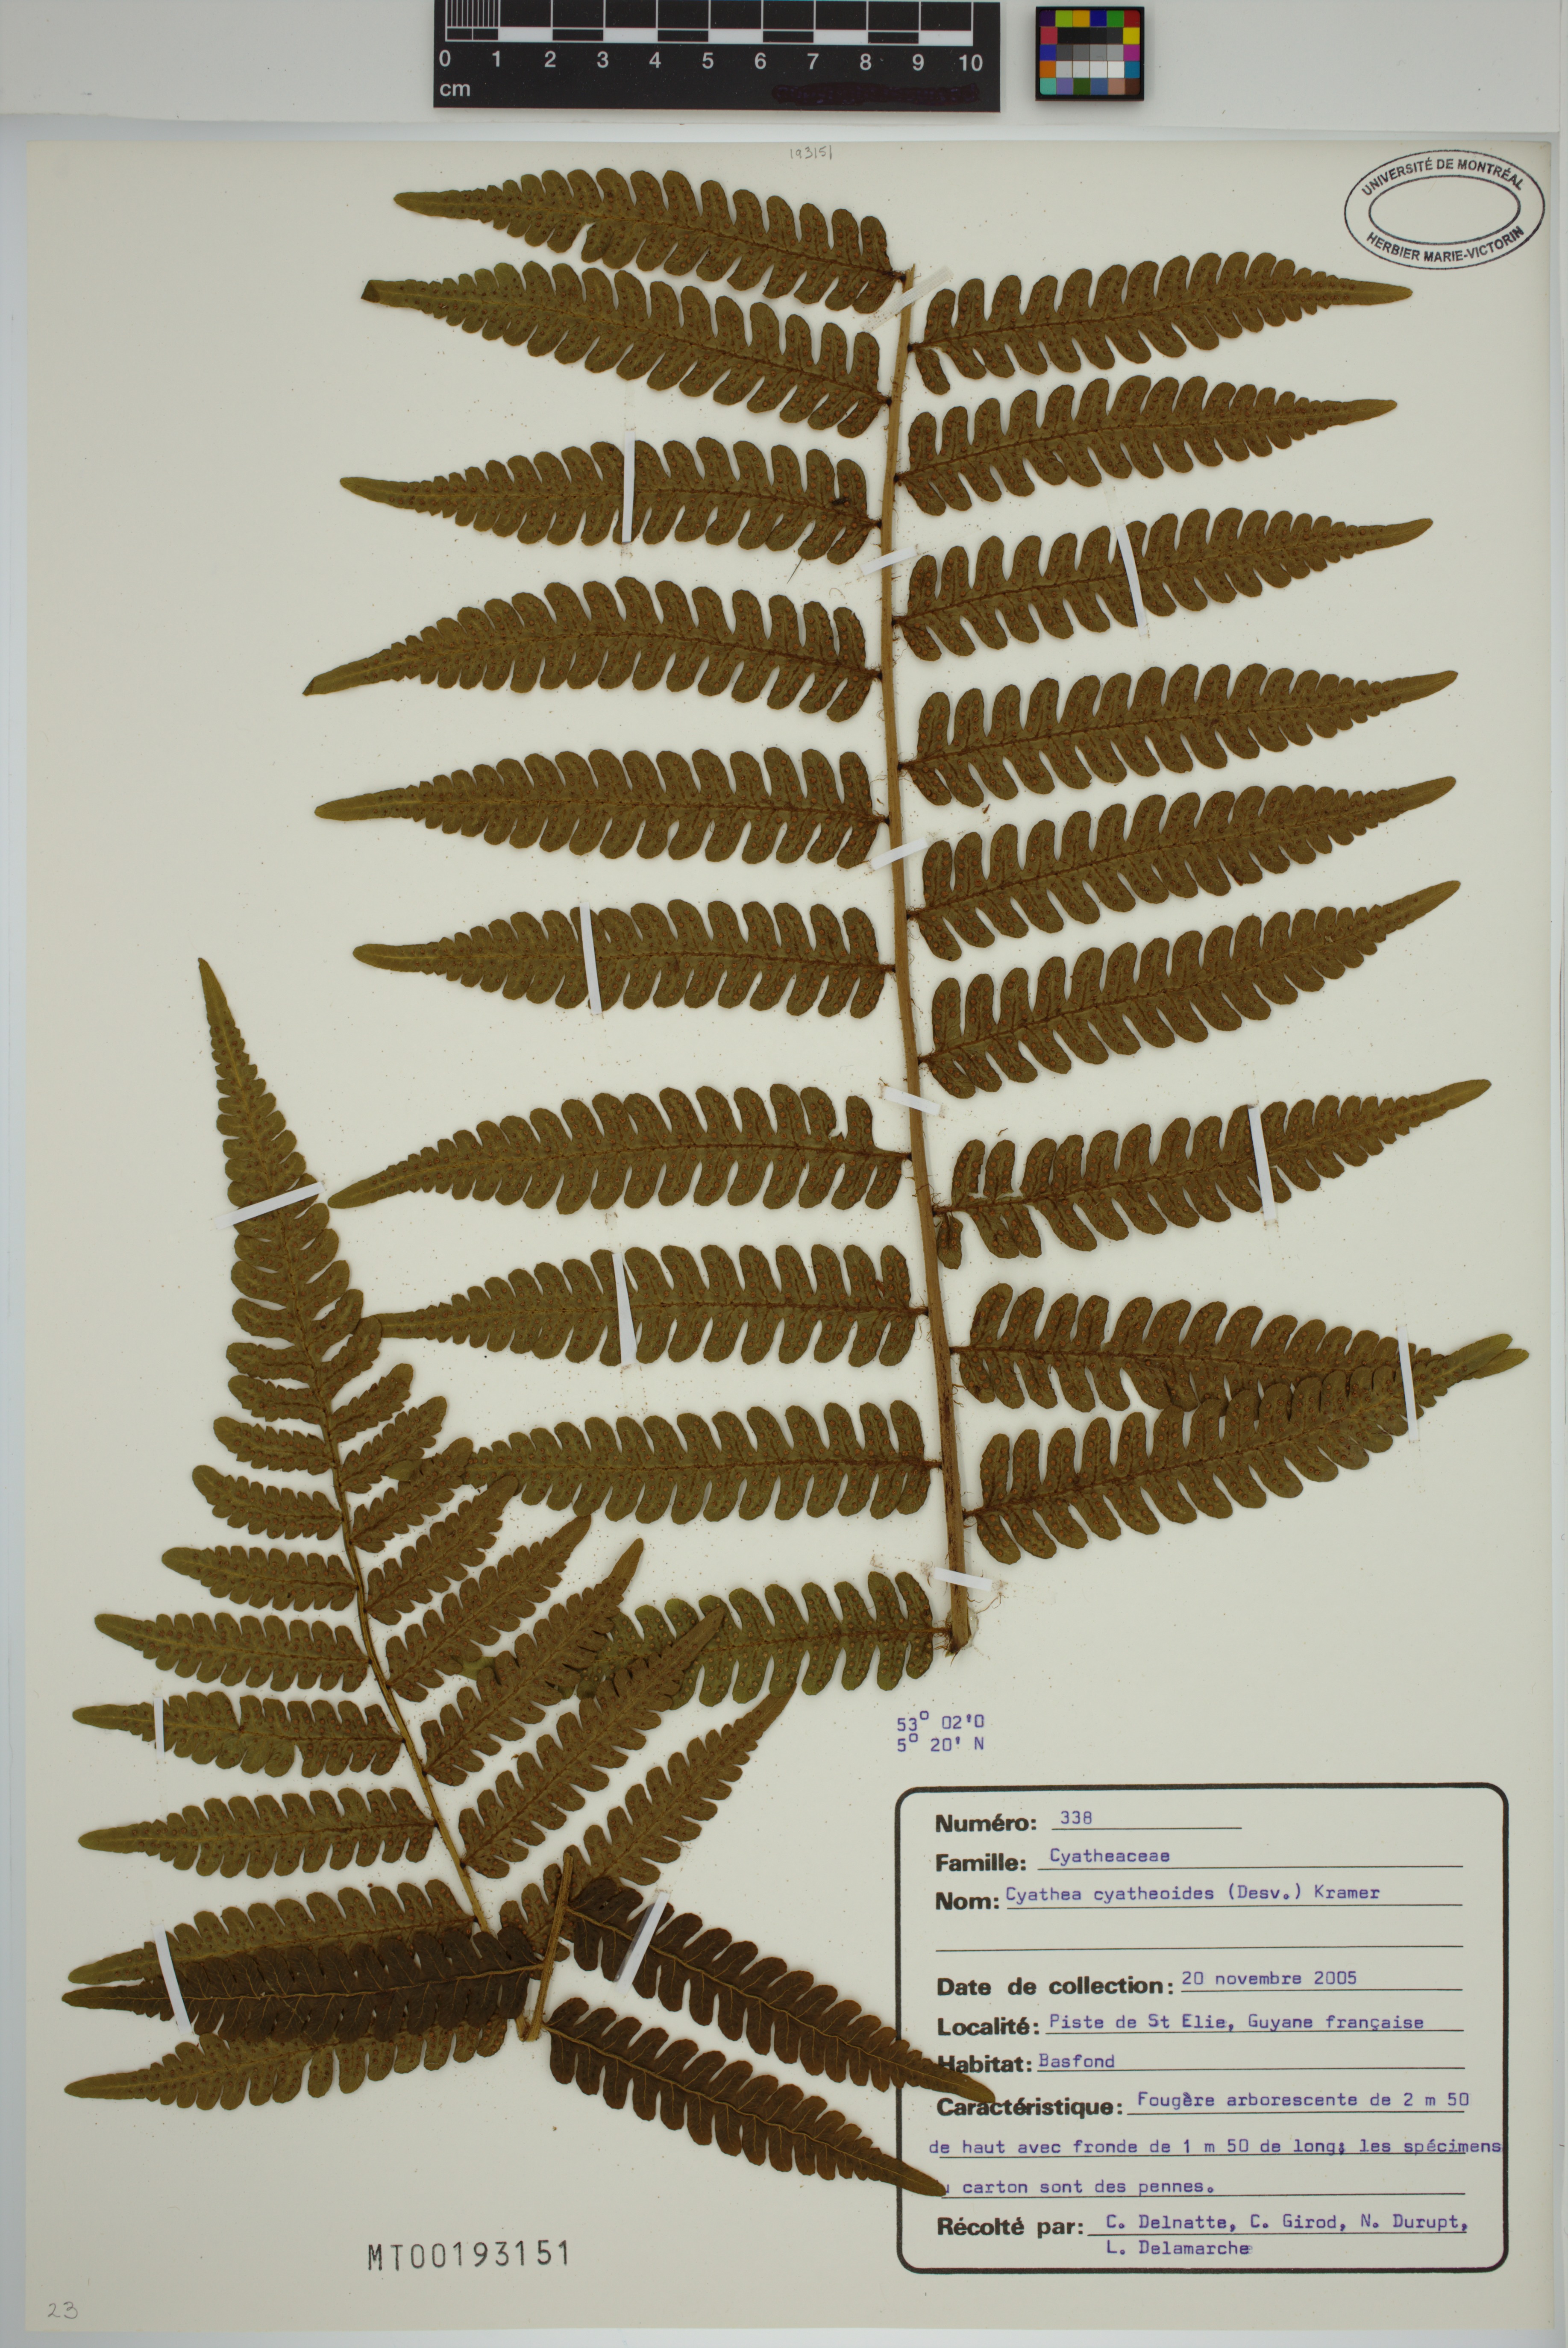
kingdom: Plantae
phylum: Tracheophyta
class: Polypodiopsida
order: Cyatheales
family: Cyatheaceae
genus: Cyathea
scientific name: Cyathea cyatheoides
